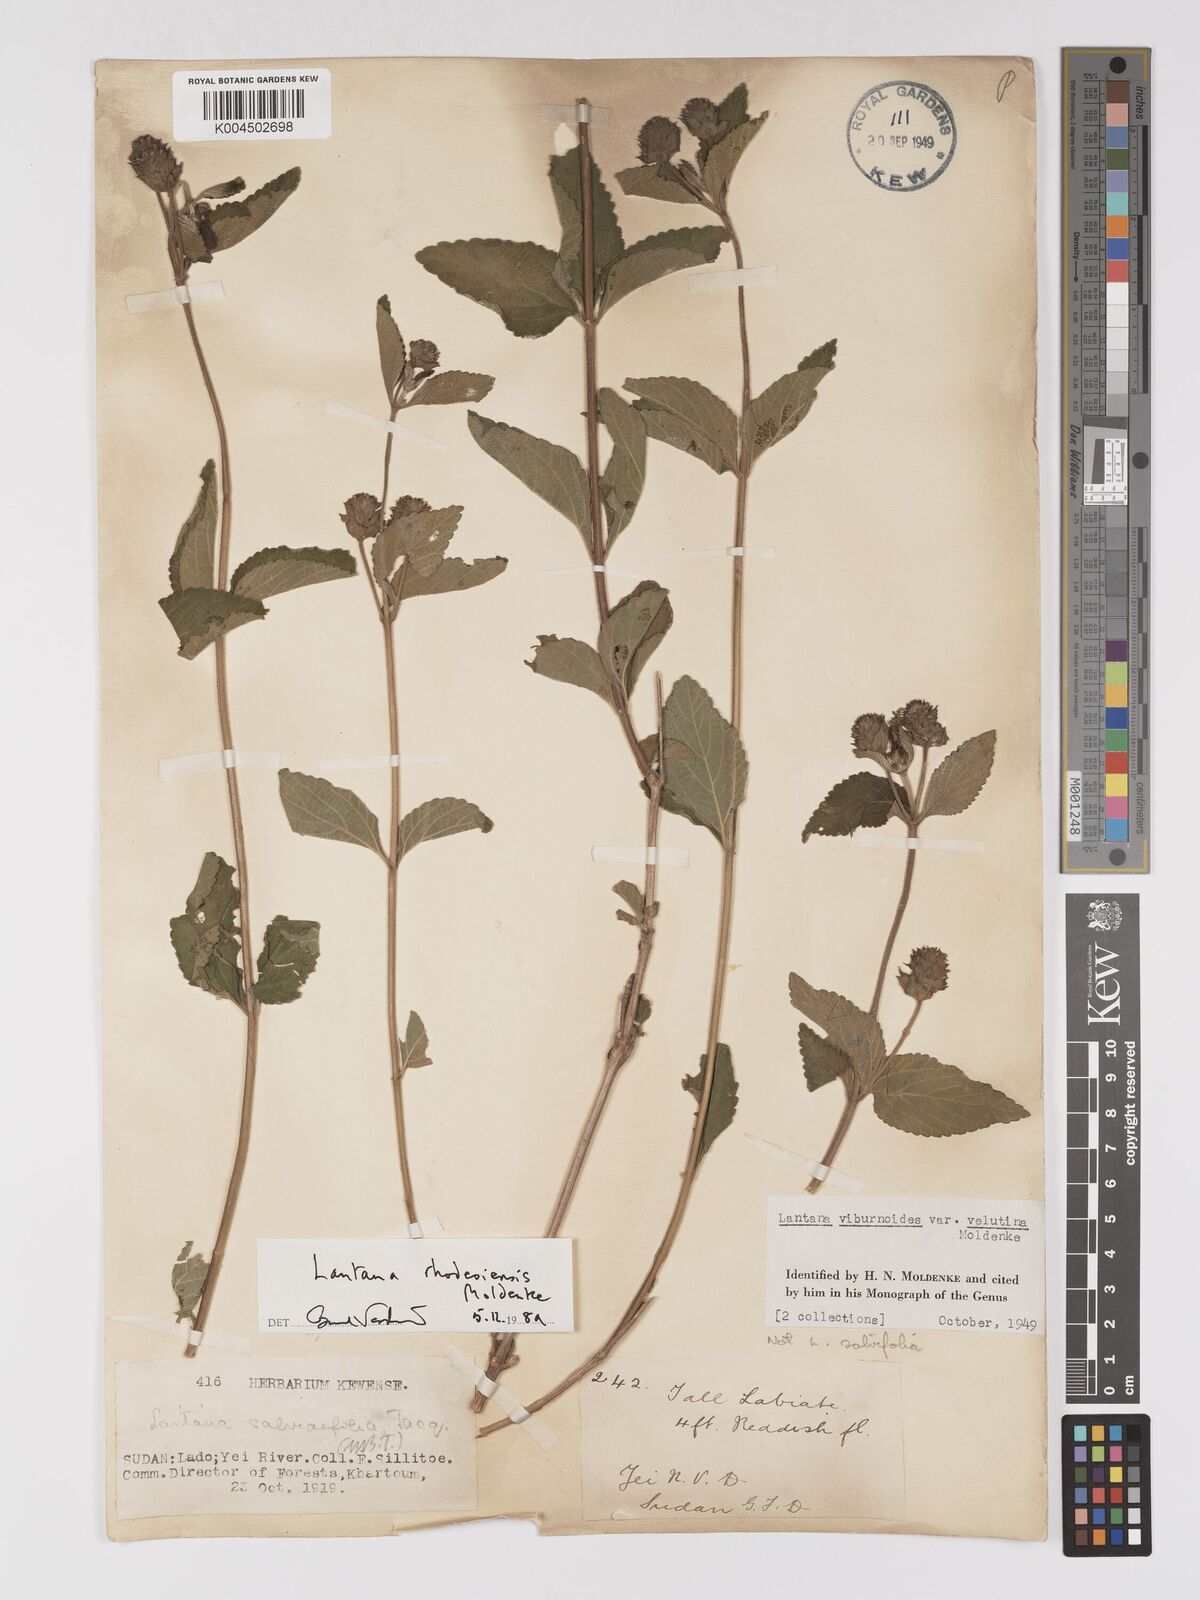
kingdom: Plantae
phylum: Tracheophyta
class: Magnoliopsida
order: Lamiales
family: Verbenaceae
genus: Lantana
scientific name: Lantana ukambensis
